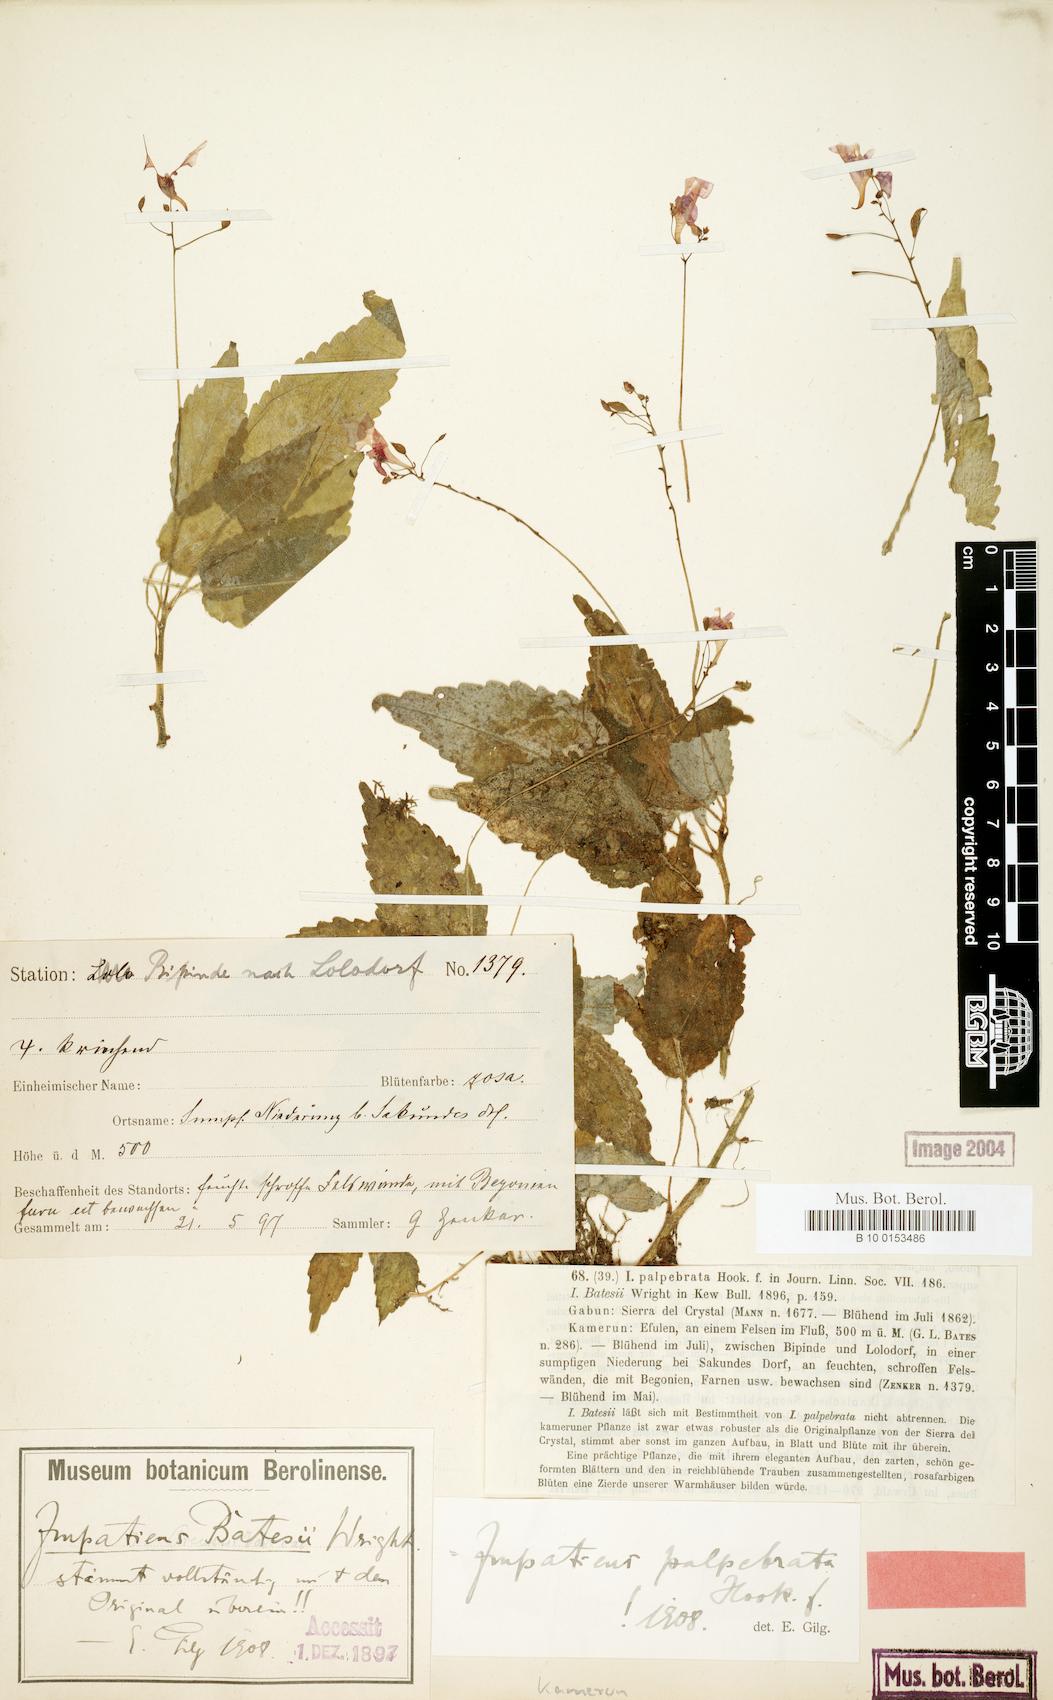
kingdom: Plantae
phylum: Tracheophyta
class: Magnoliopsida
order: Ericales
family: Balsaminaceae
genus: Impatiens
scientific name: Impatiens palpebrata
